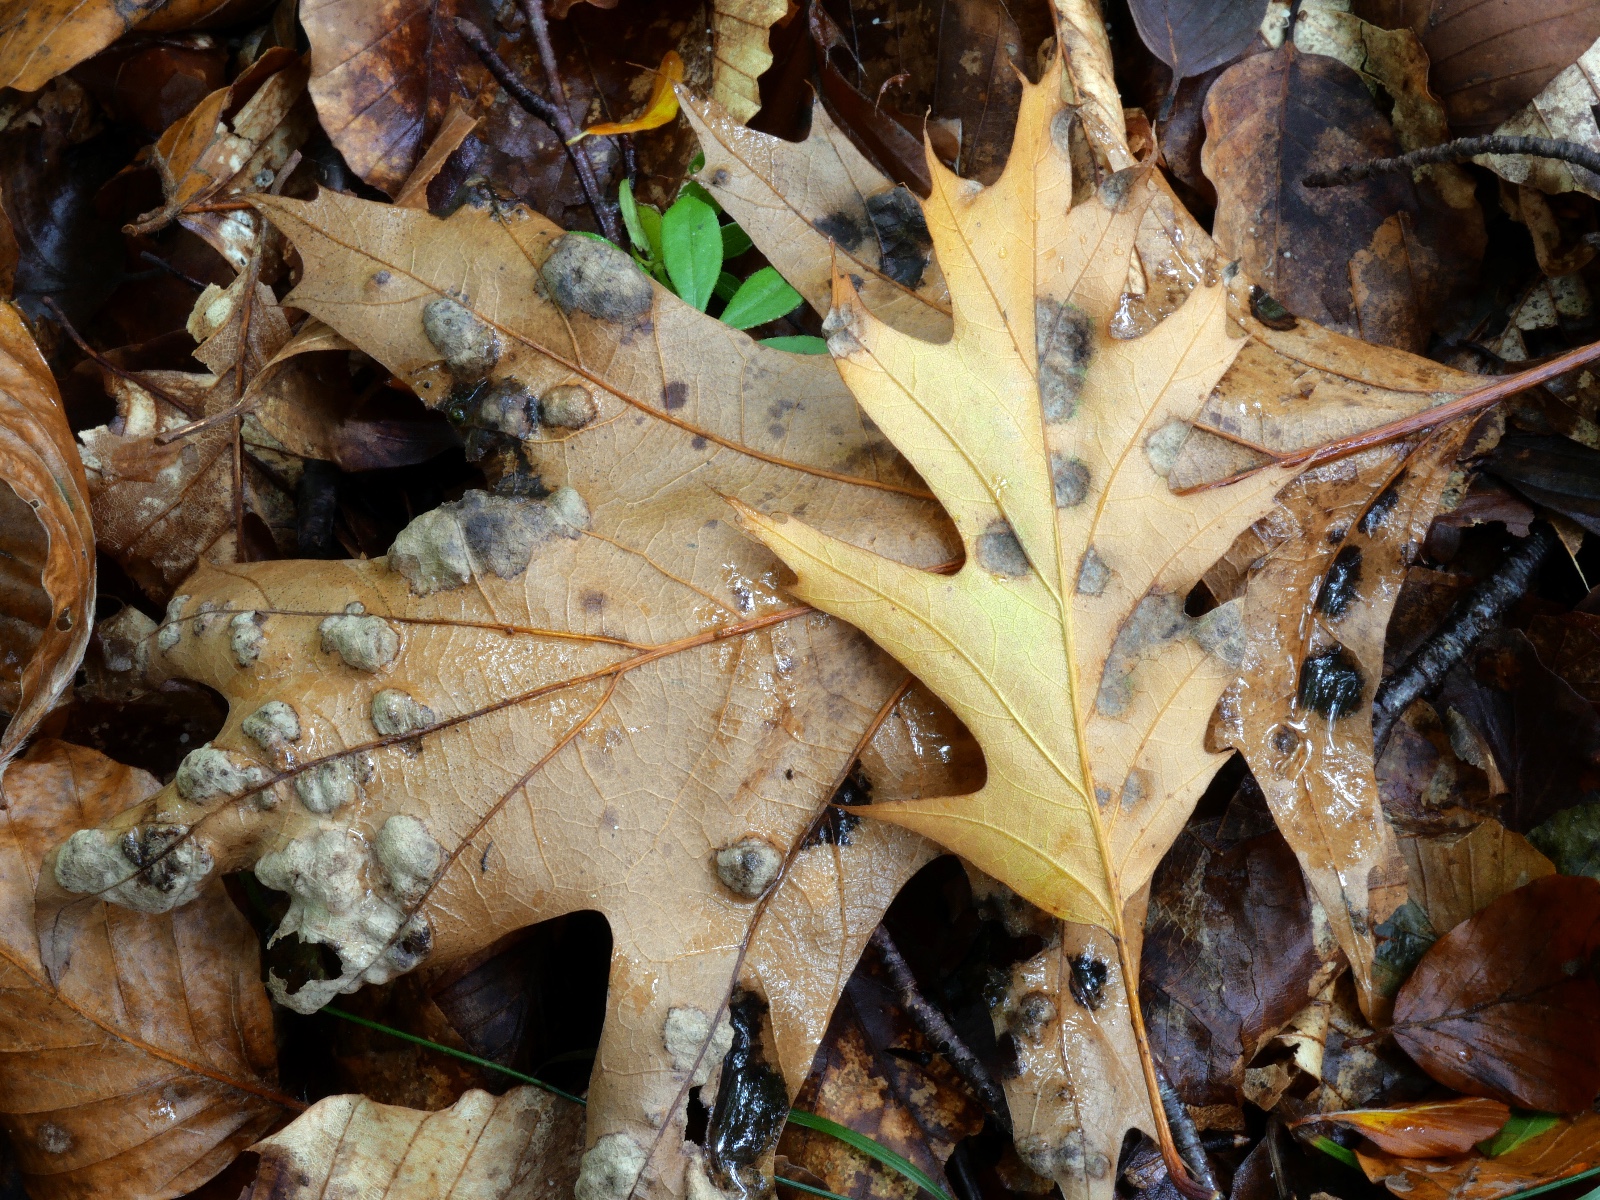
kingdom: Fungi
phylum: Ascomycota
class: Taphrinomycetes
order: Taphrinales
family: Taphrinaceae
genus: Taphrina
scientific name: Taphrina caerulescens
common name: Oak leaf blister
